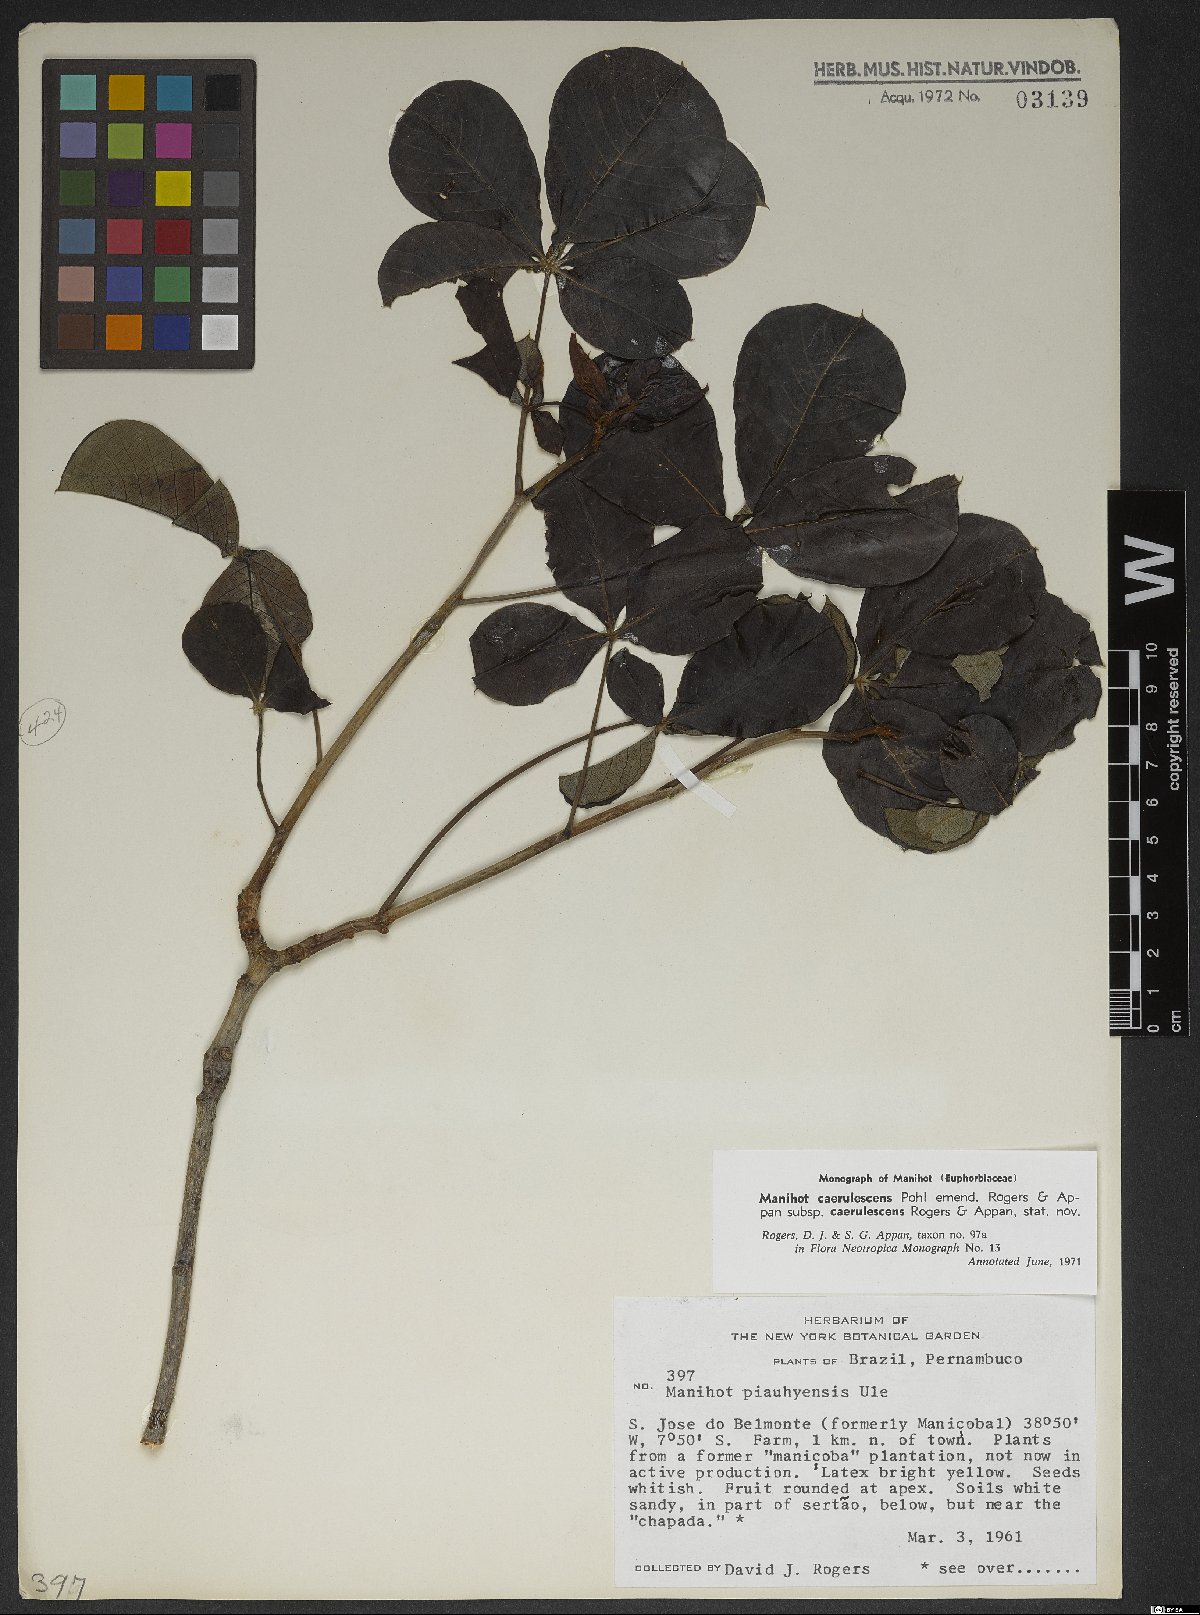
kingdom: Plantae
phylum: Tracheophyta
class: Magnoliopsida
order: Malpighiales
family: Euphorbiaceae
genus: Manihot
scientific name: Manihot caerulescens
